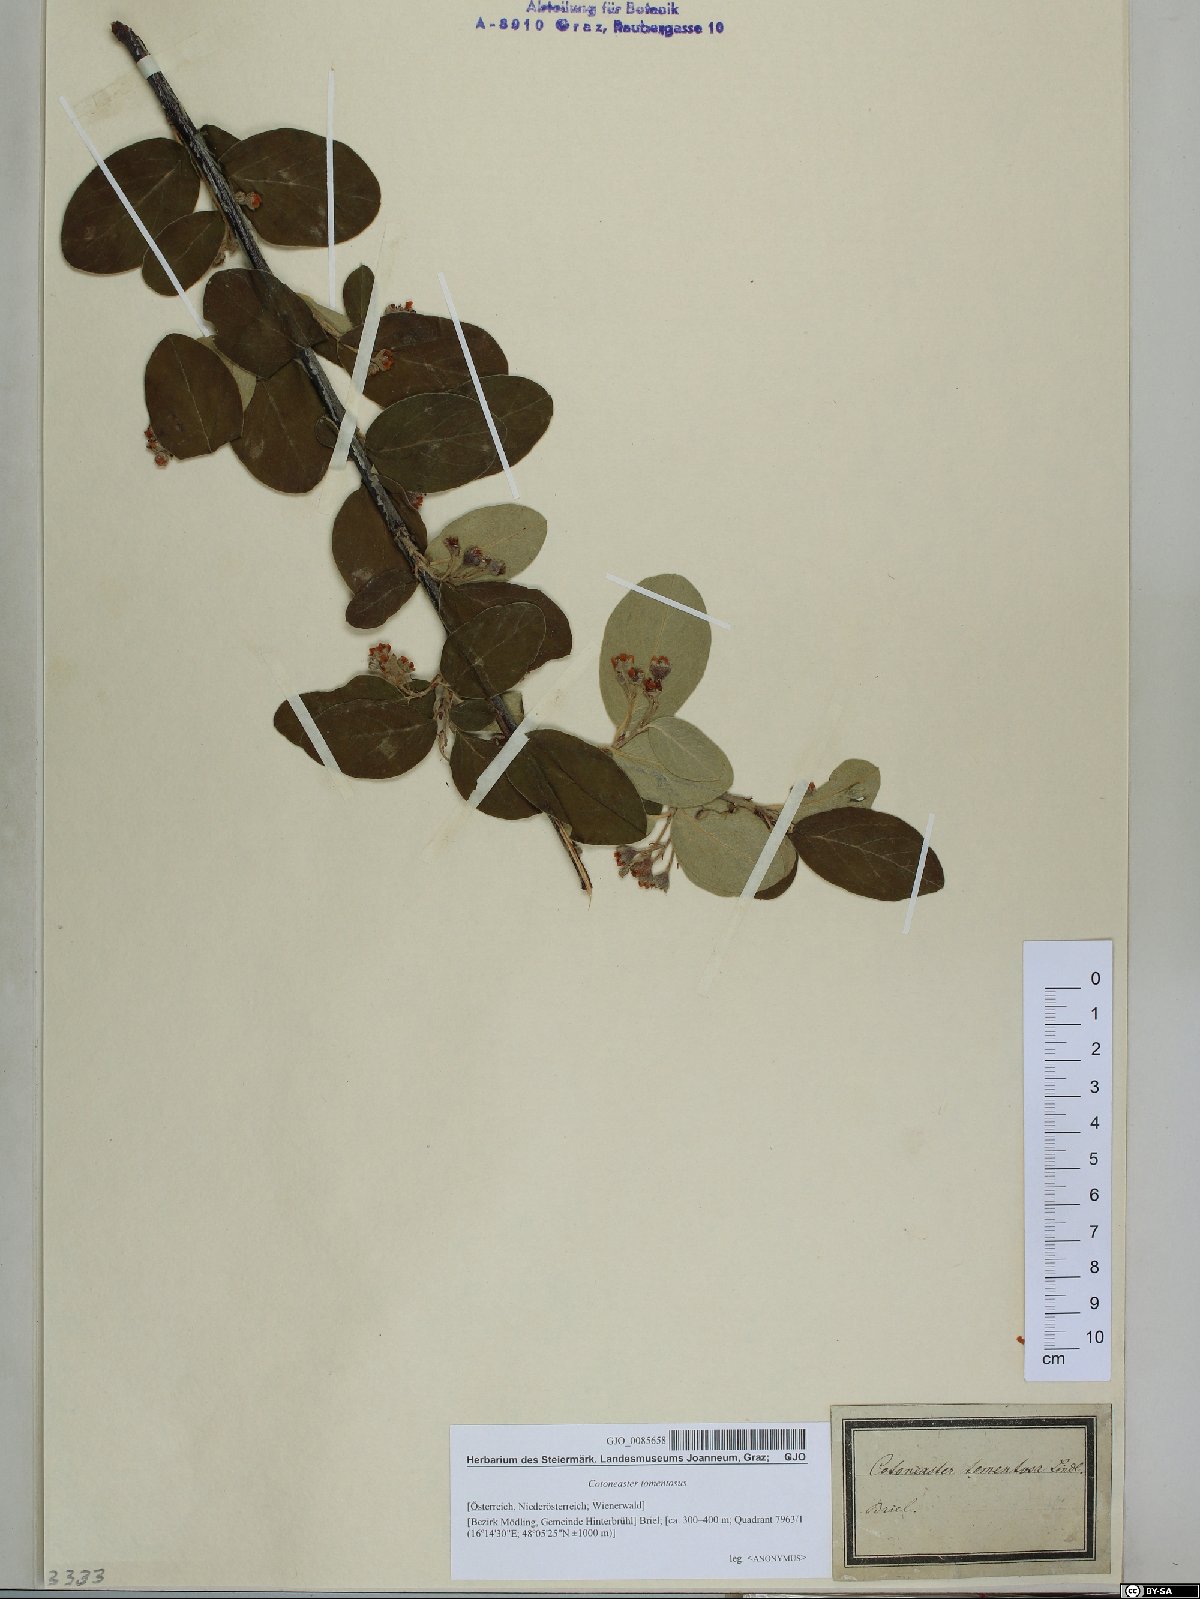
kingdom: Plantae
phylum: Tracheophyta
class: Magnoliopsida
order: Rosales
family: Rosaceae
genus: Cotoneaster
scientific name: Cotoneaster tomentosus
